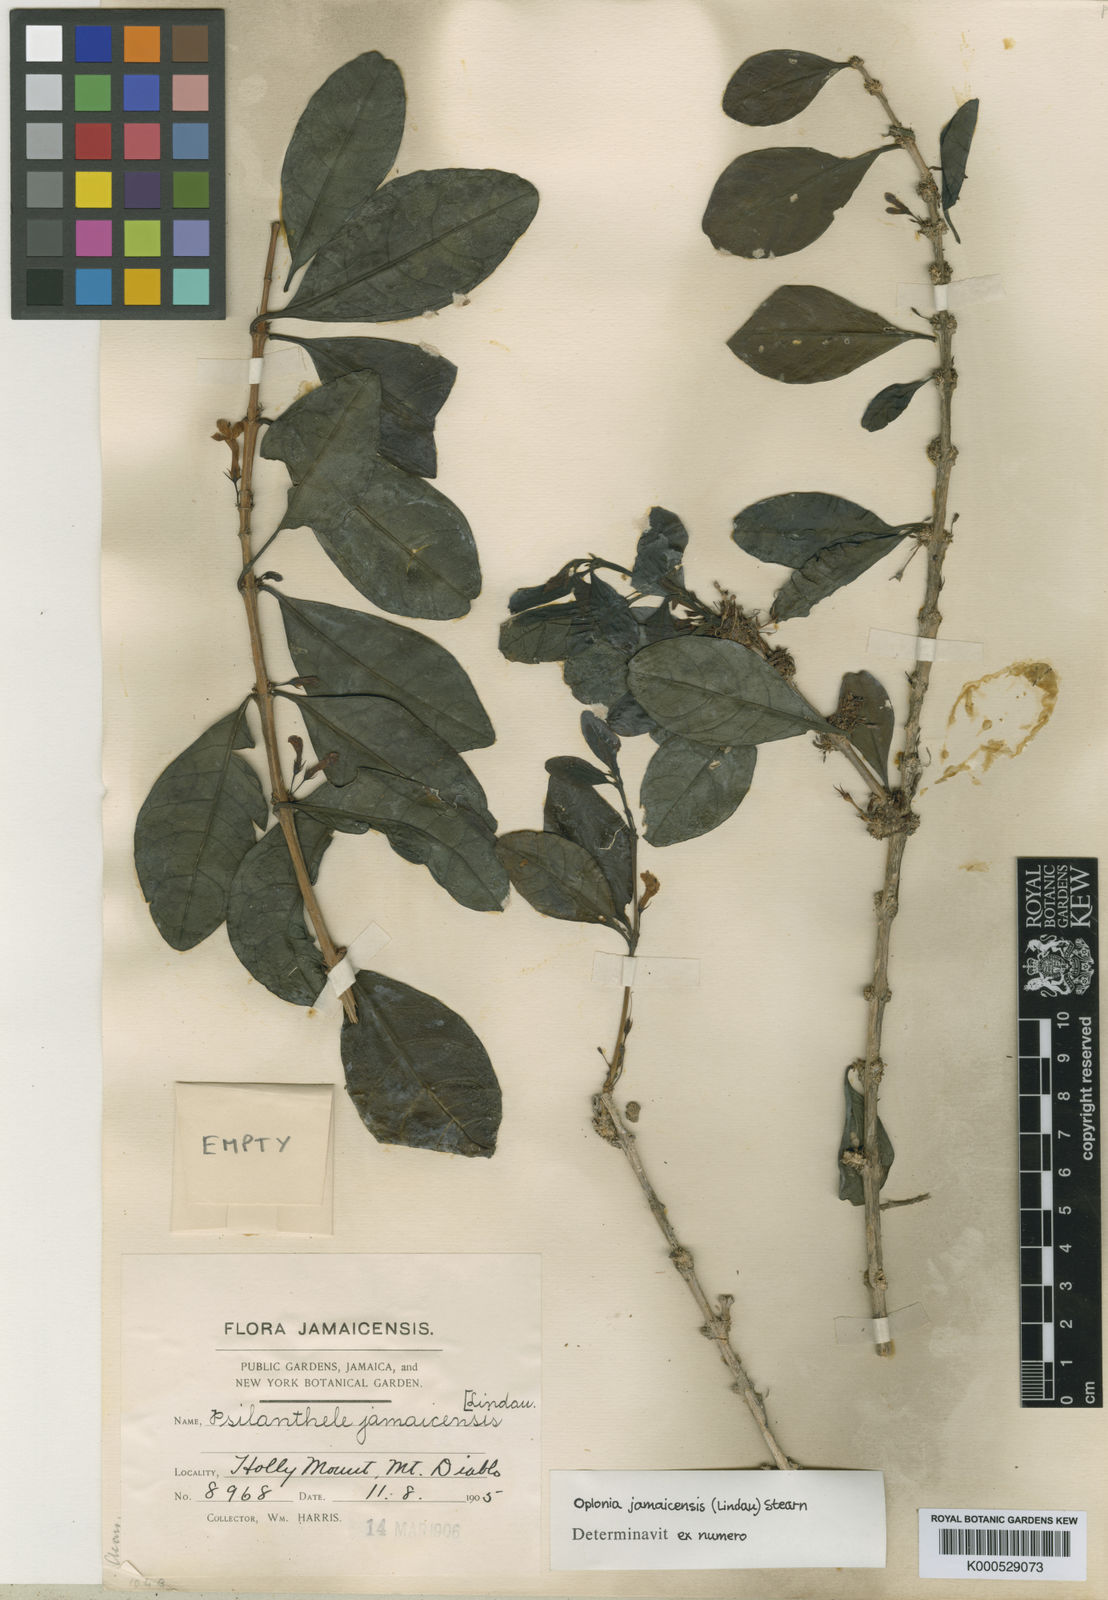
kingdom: Plantae
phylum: Tracheophyta
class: Magnoliopsida
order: Lamiales
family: Acanthaceae
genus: Oplonia
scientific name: Oplonia jamaicensis
